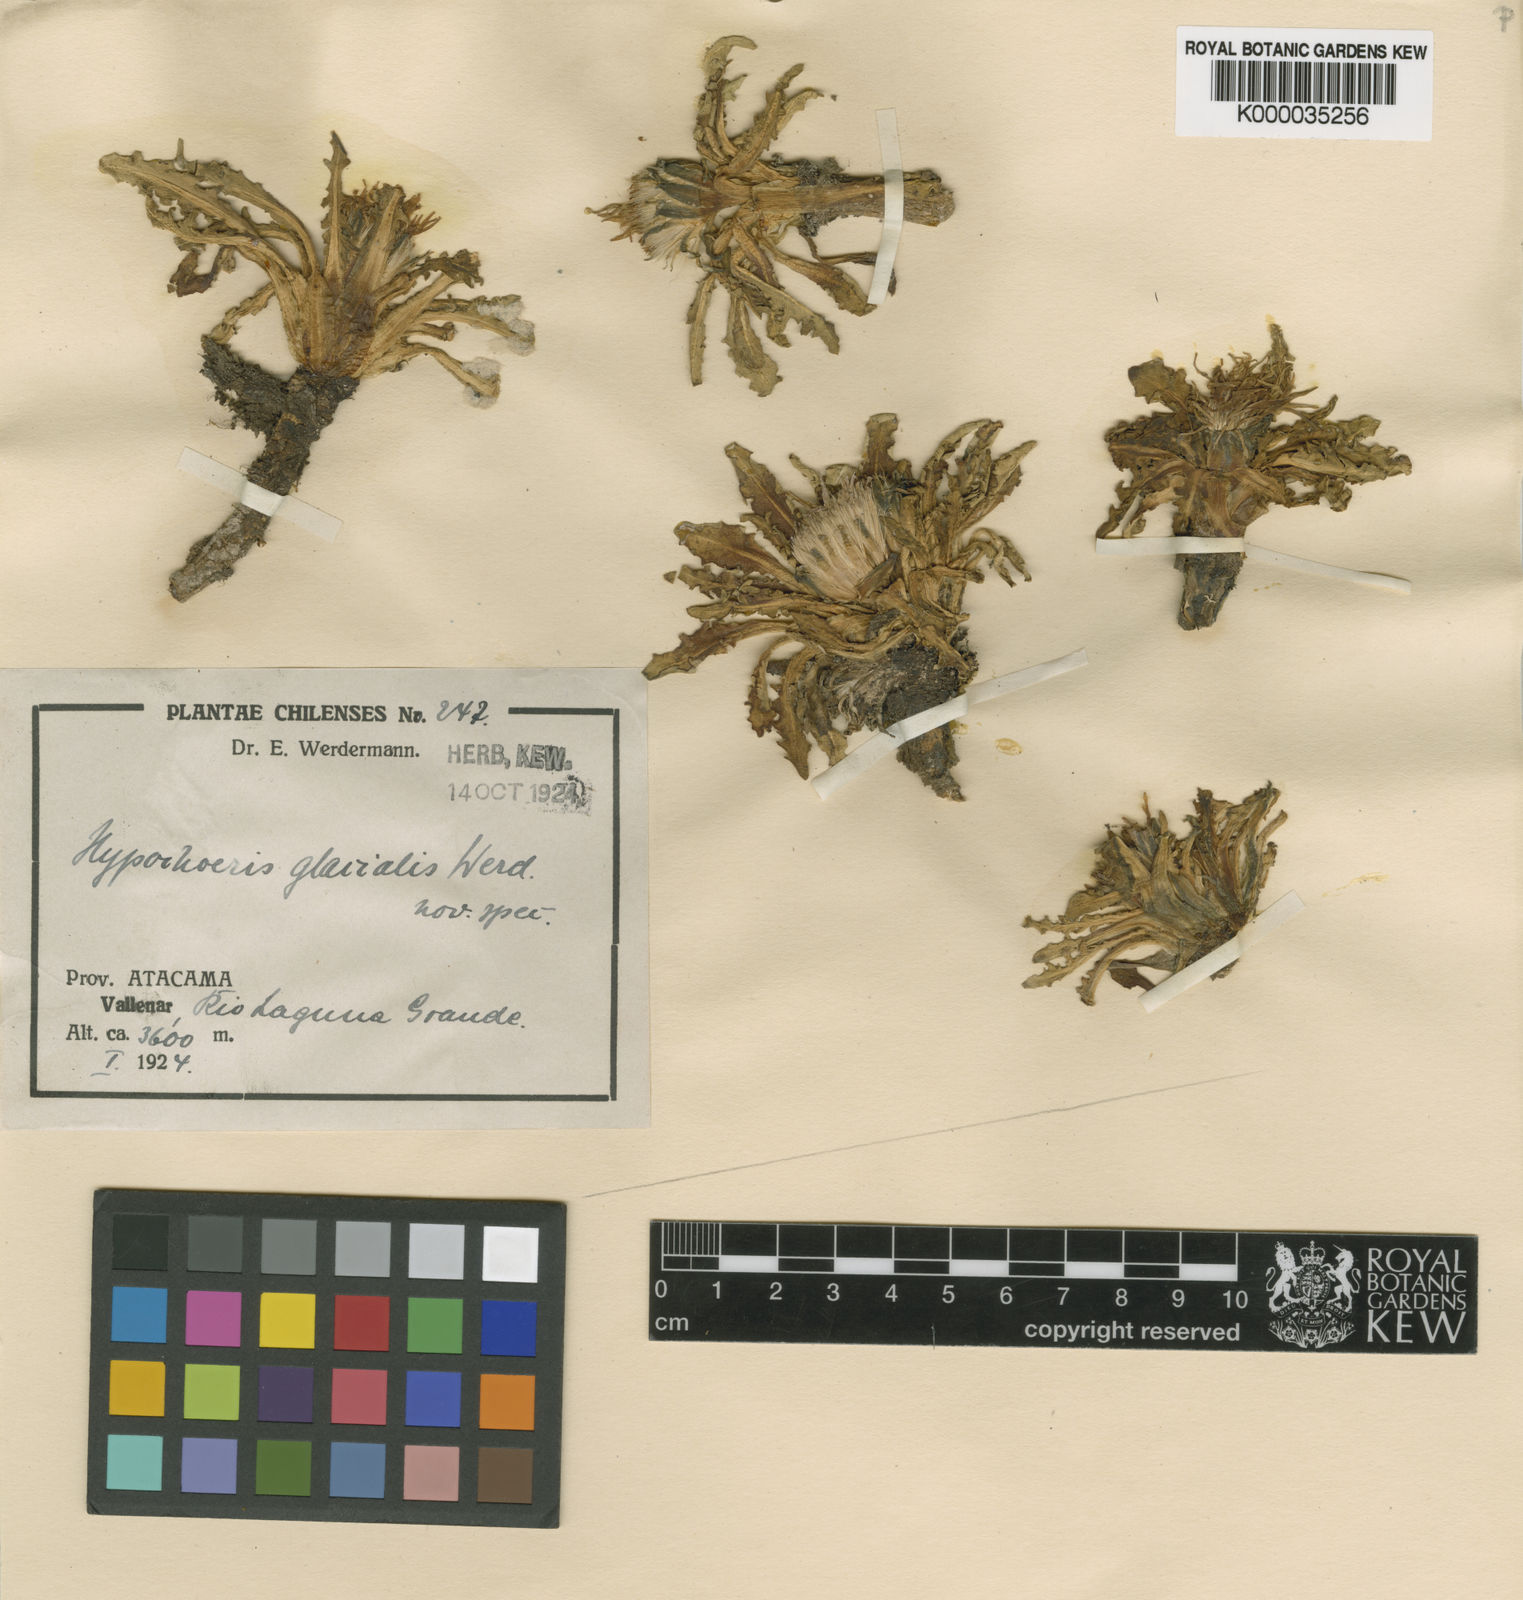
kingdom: Plantae
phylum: Tracheophyta
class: Magnoliopsida
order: Asterales
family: Asteraceae
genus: Hypochaeris
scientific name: Hypochaeris
